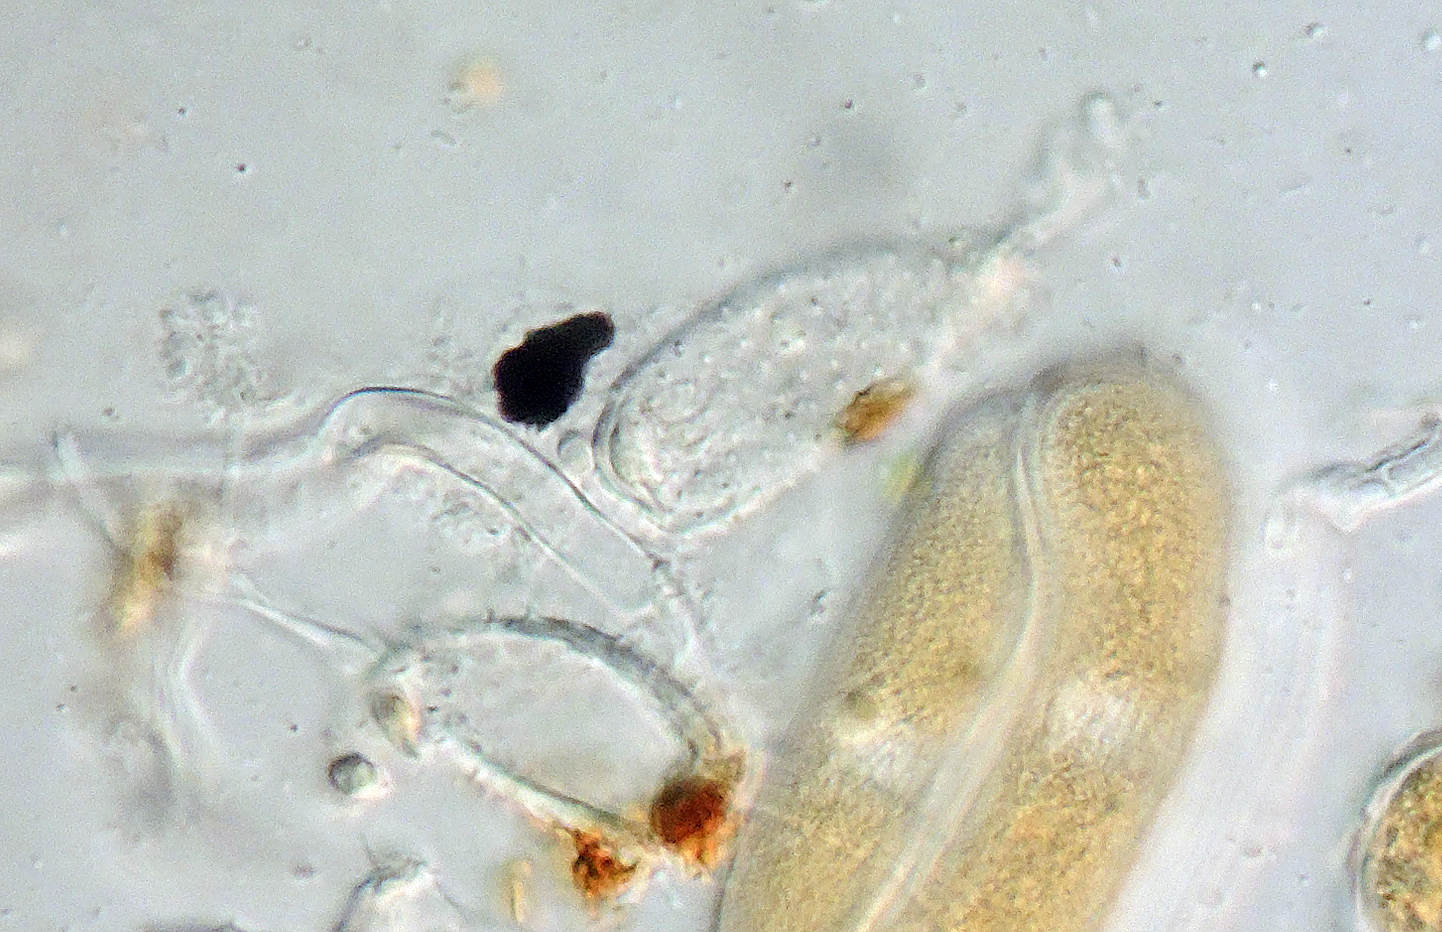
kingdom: Fungi
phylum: Basidiomycota
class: Pucciniomycetes
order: Pucciniales
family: Pucciniastraceae
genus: Melampsoridium
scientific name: Melampsoridium betulinum
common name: Birch rust
